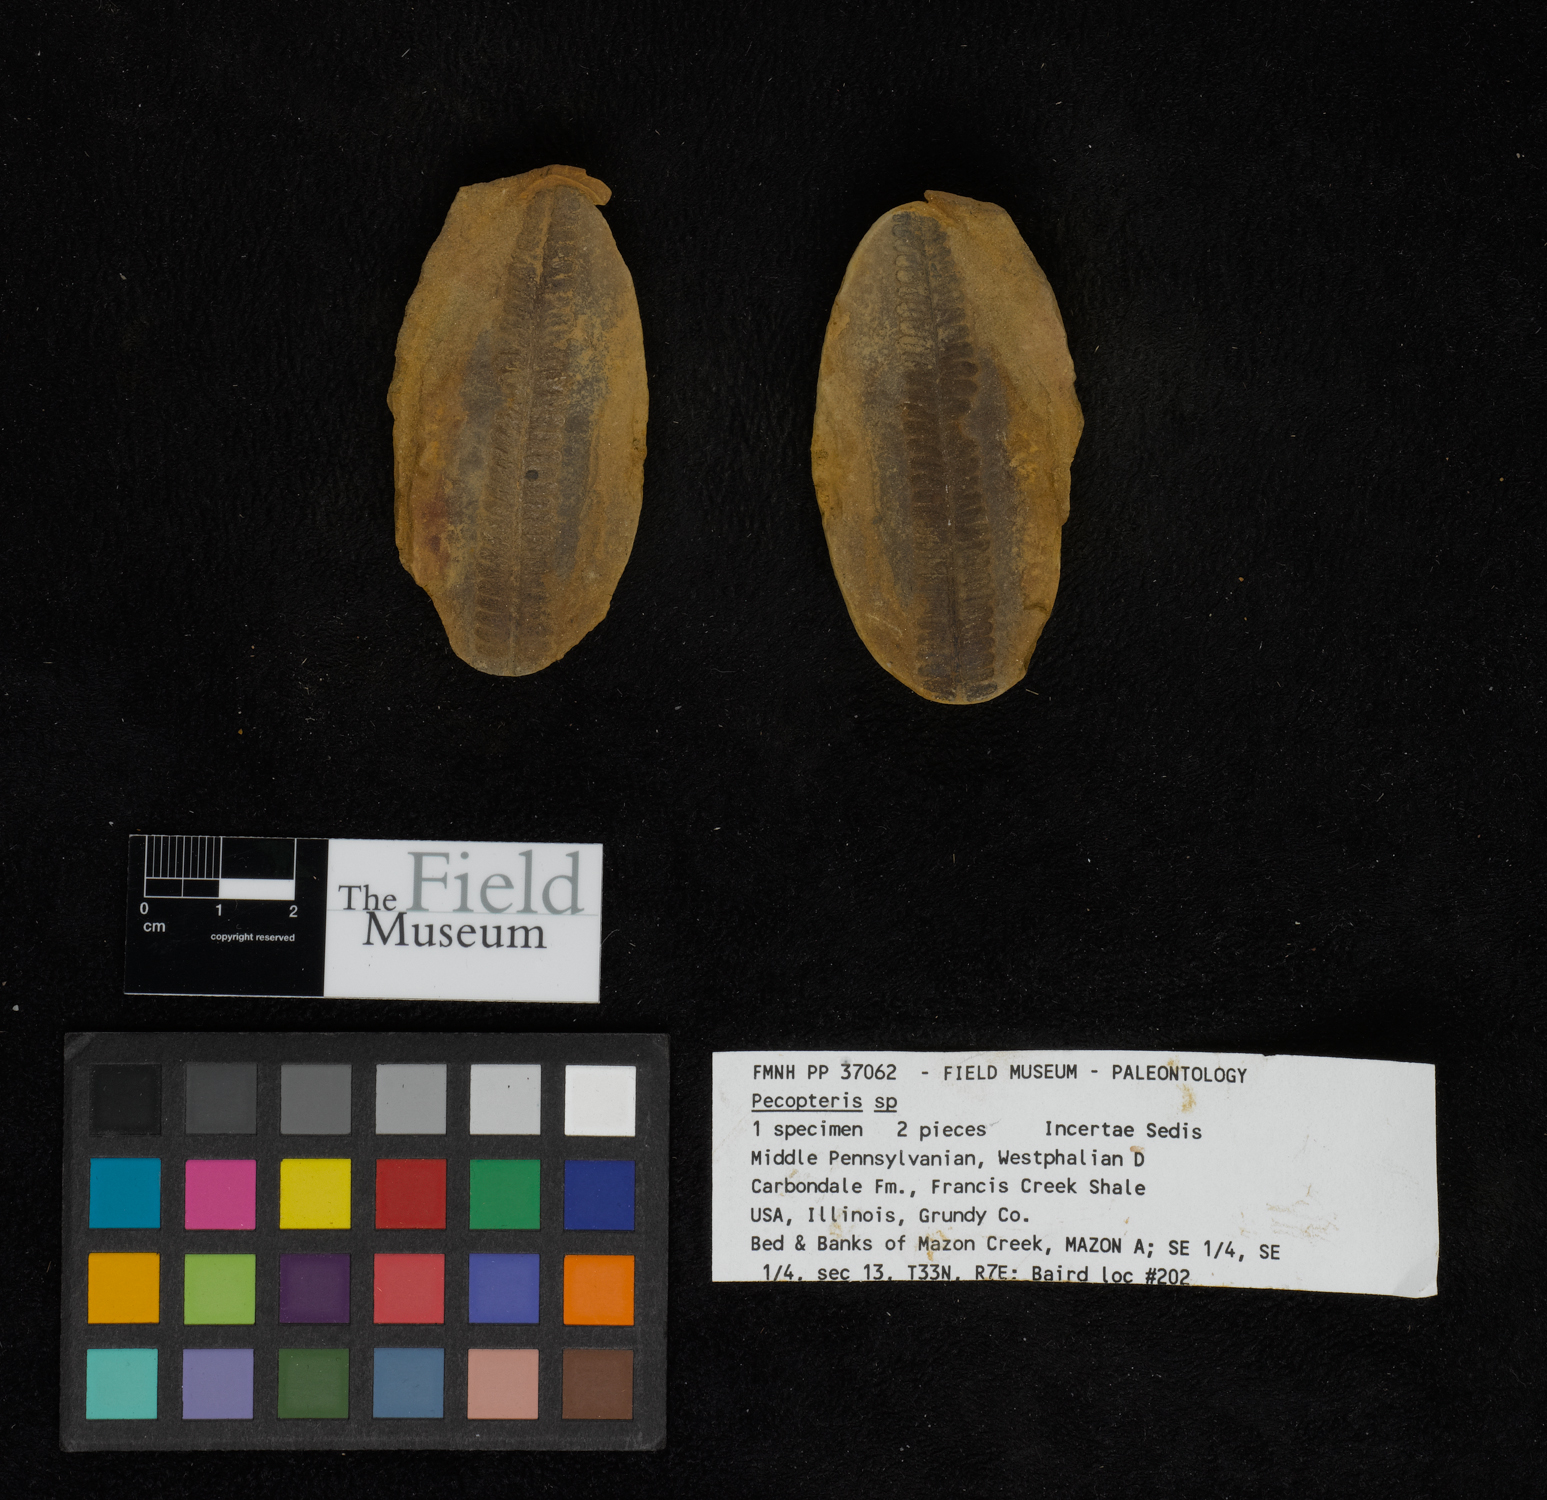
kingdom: Plantae
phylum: Tracheophyta
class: Polypodiopsida
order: Marattiales
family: Asterothecaceae
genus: Pecopteris
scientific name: Pecopteris
